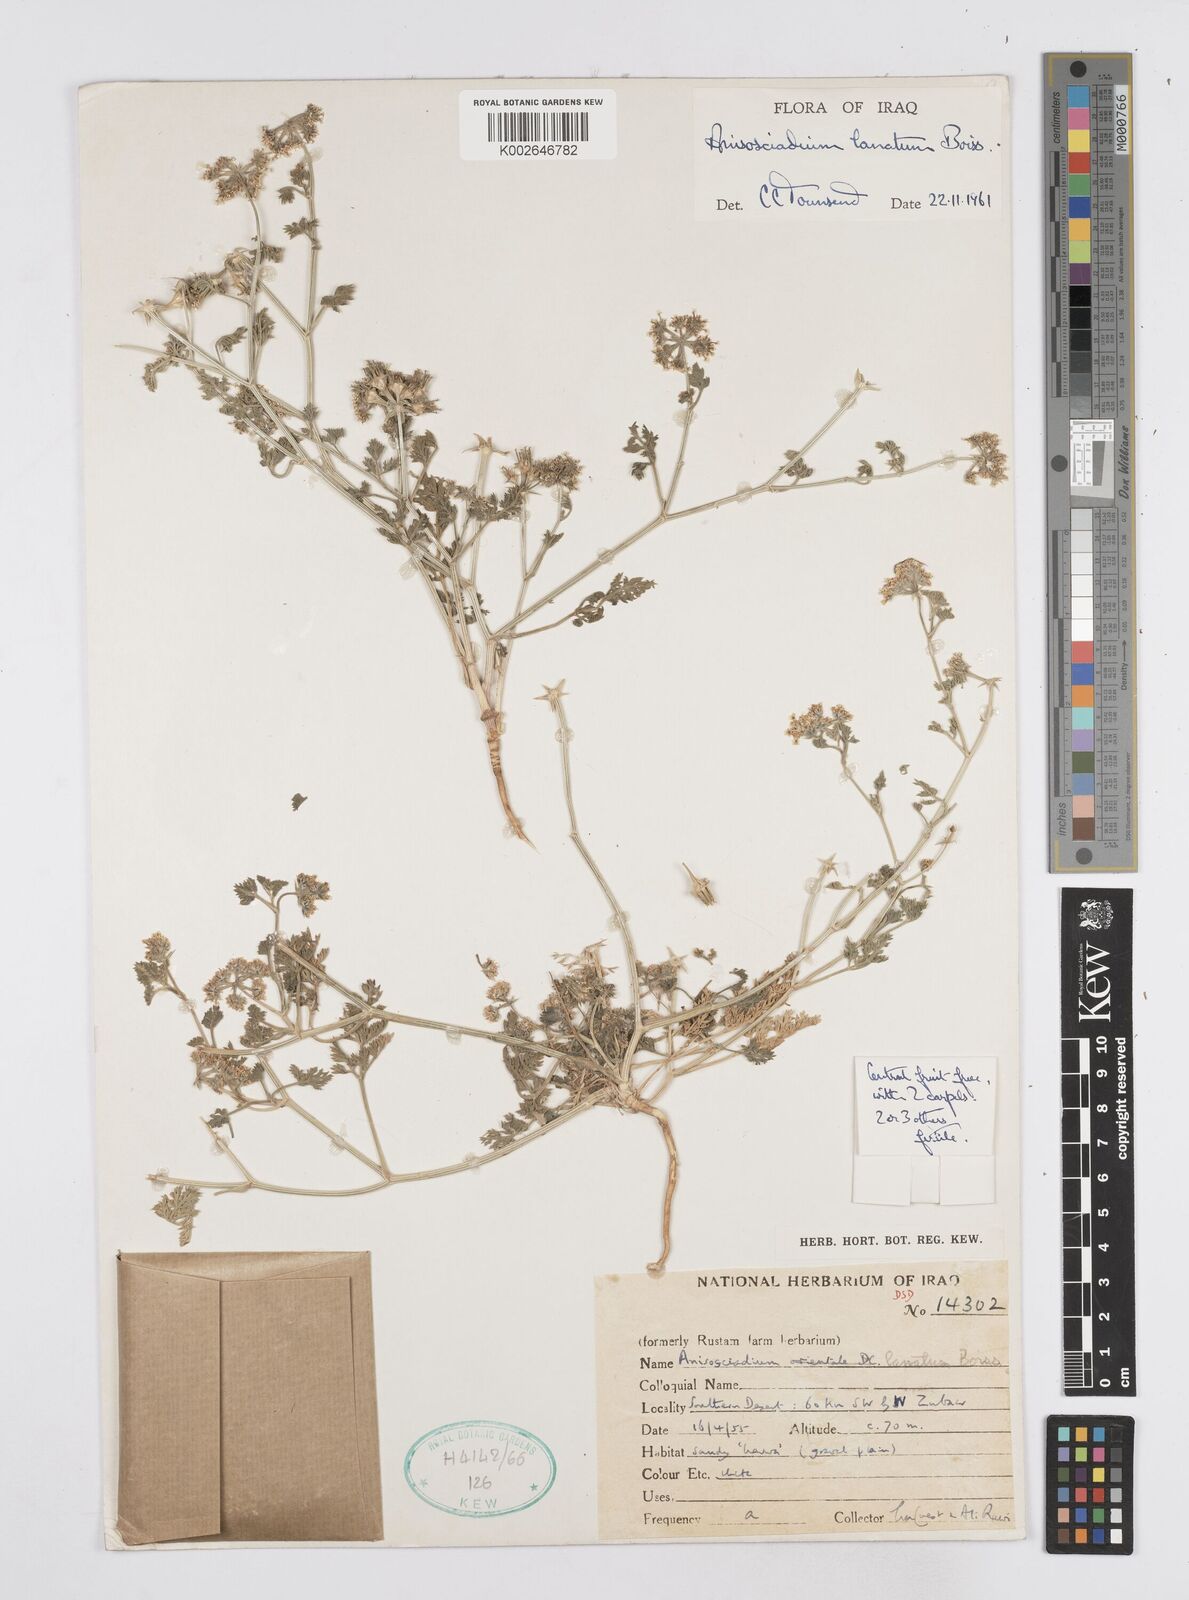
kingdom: Plantae
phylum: Tracheophyta
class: Magnoliopsida
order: Apiales
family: Apiaceae
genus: Anisosciadium
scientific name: Anisosciadium lanatum
